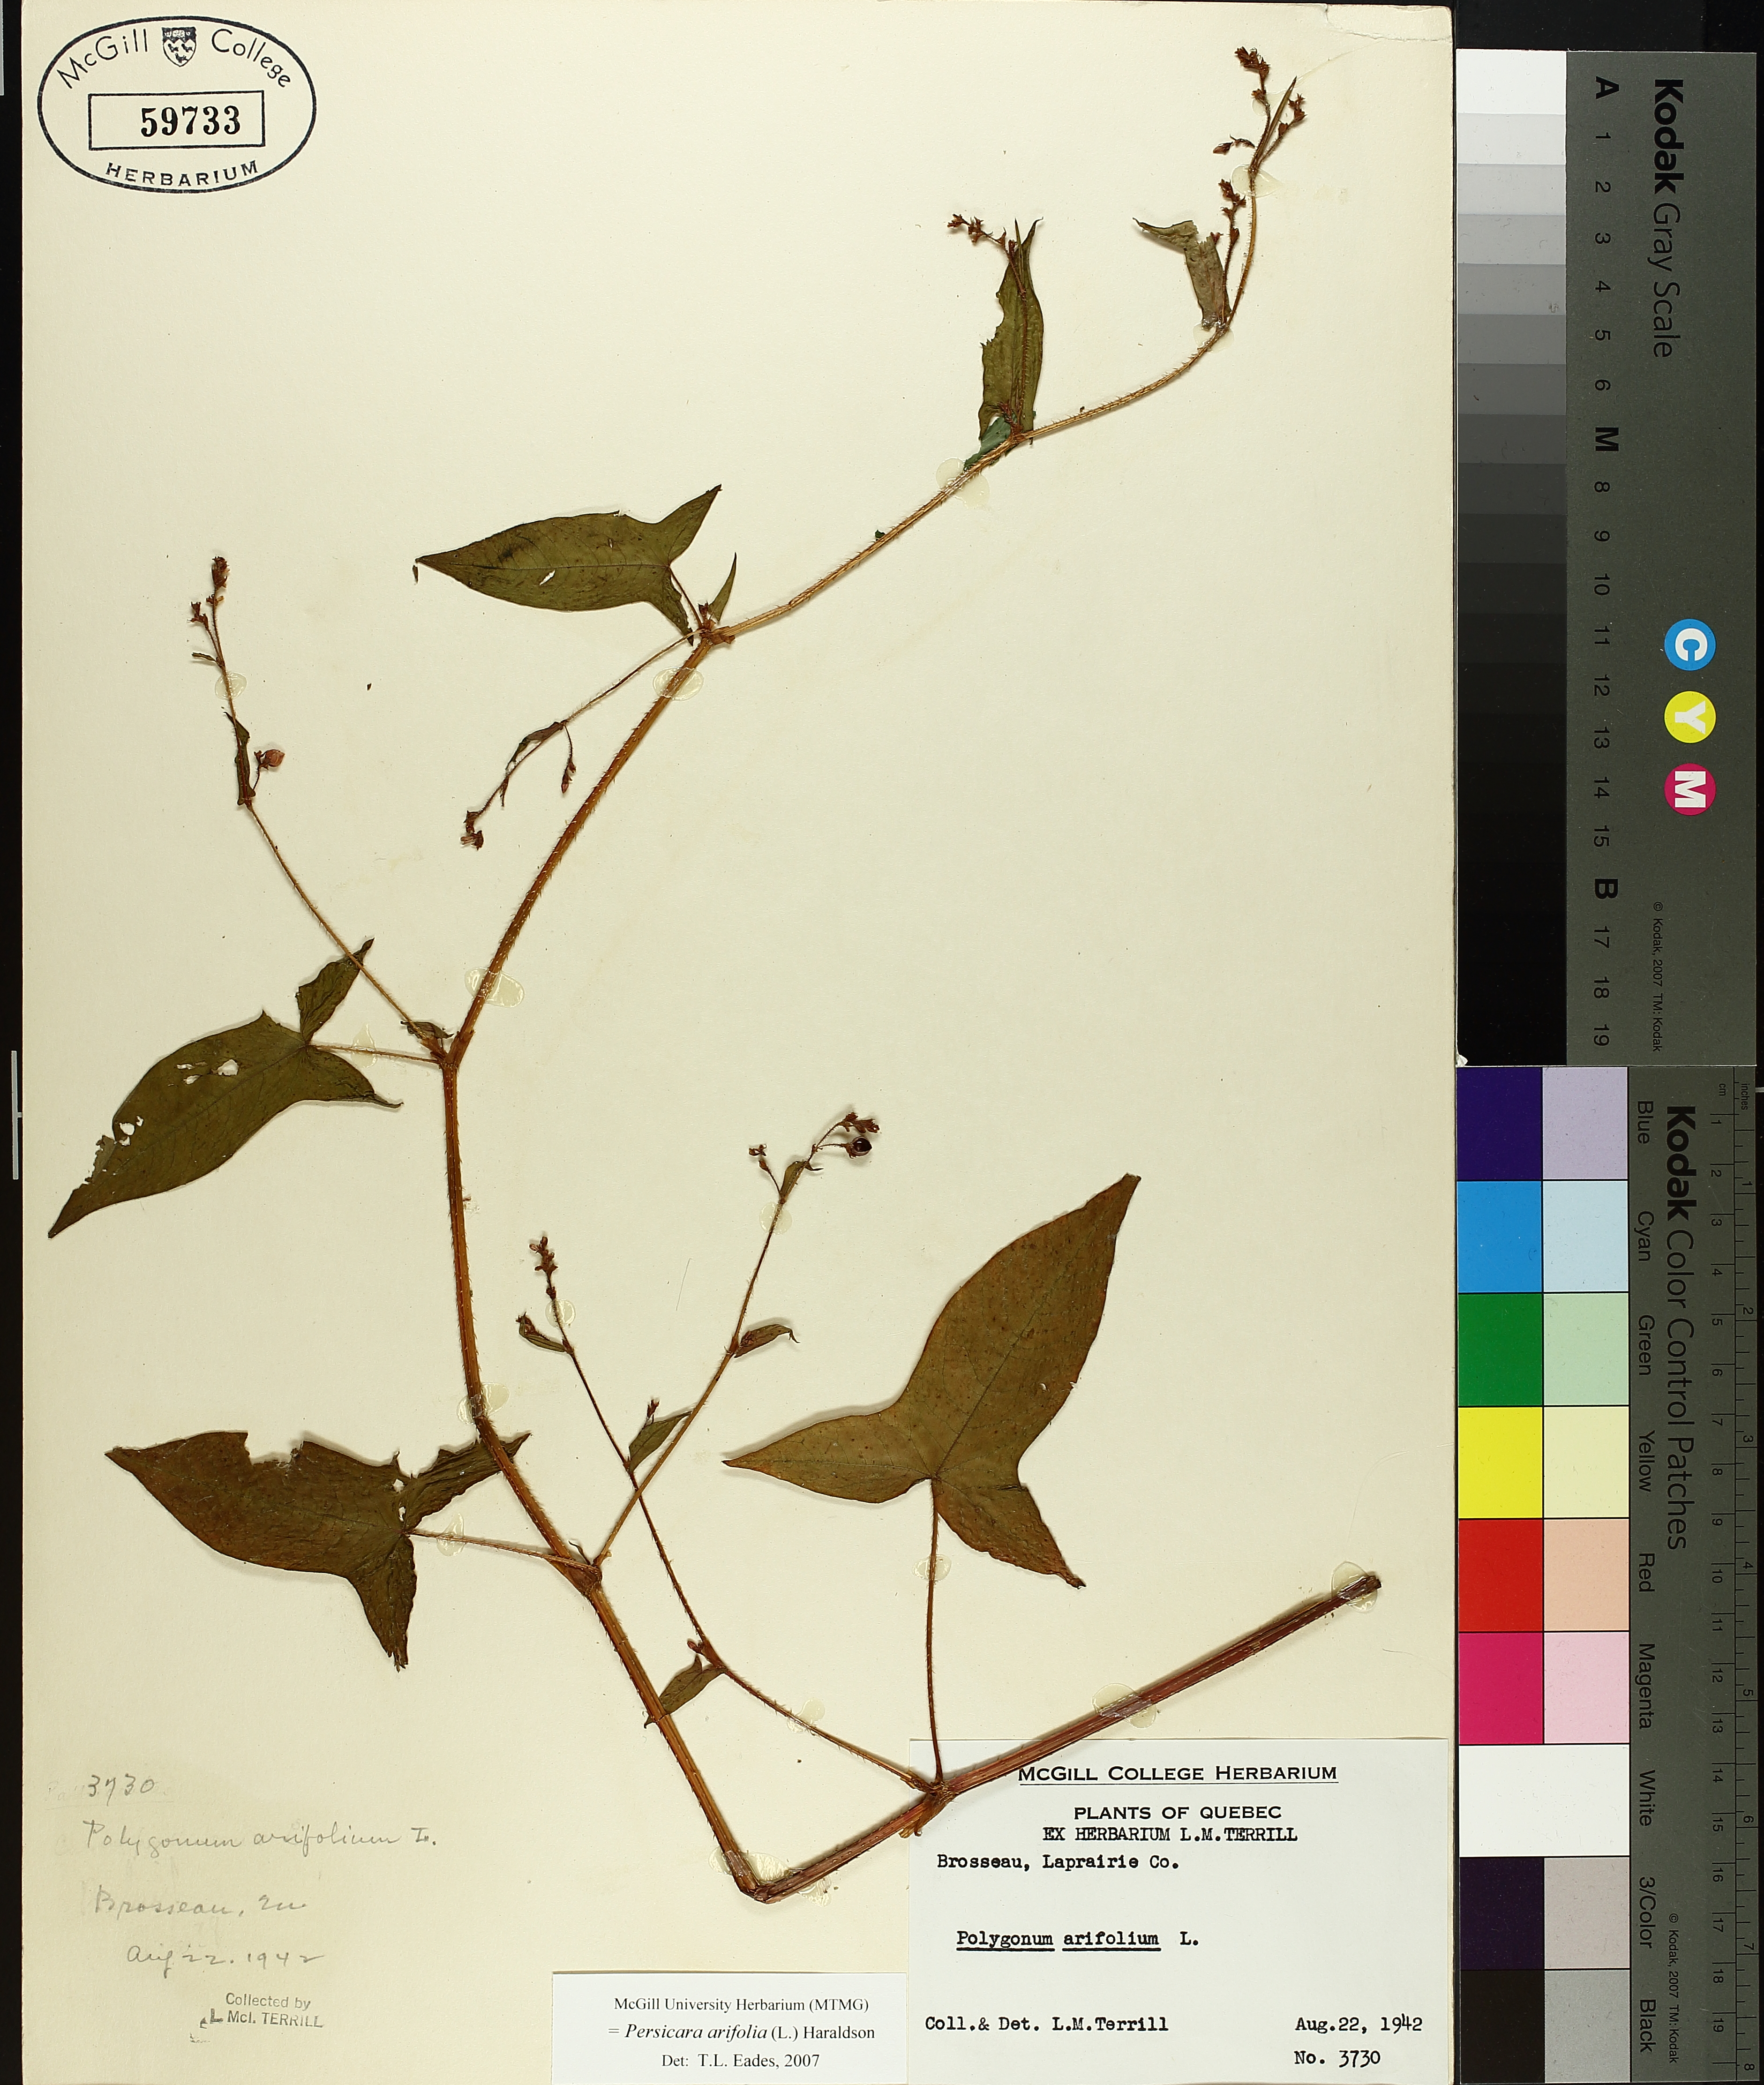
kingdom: Plantae
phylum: Tracheophyta
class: Magnoliopsida
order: Caryophyllales
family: Polygonaceae
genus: Persicaria
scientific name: Persicaria arifolia
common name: Halberd-leaved tear-thumb
